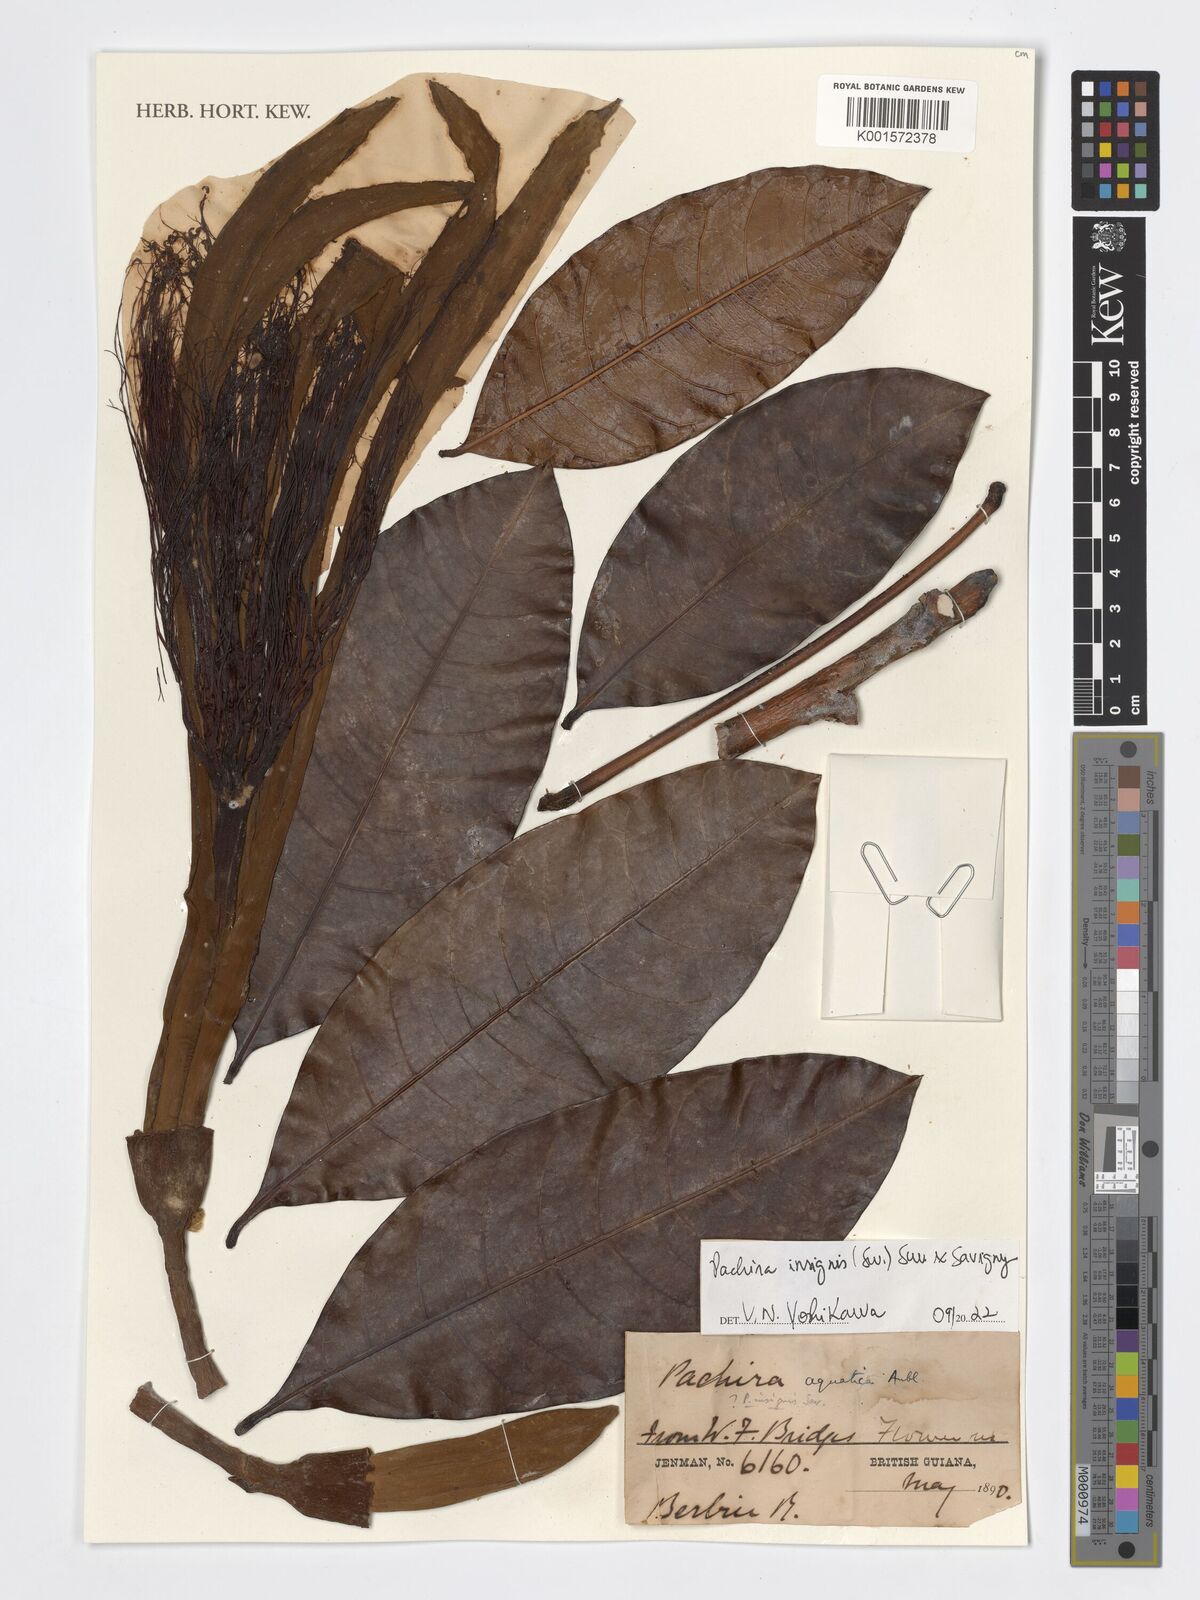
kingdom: Plantae
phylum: Tracheophyta
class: Magnoliopsida
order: Malvales
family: Malvaceae
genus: Pachira
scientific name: Pachira insignis
